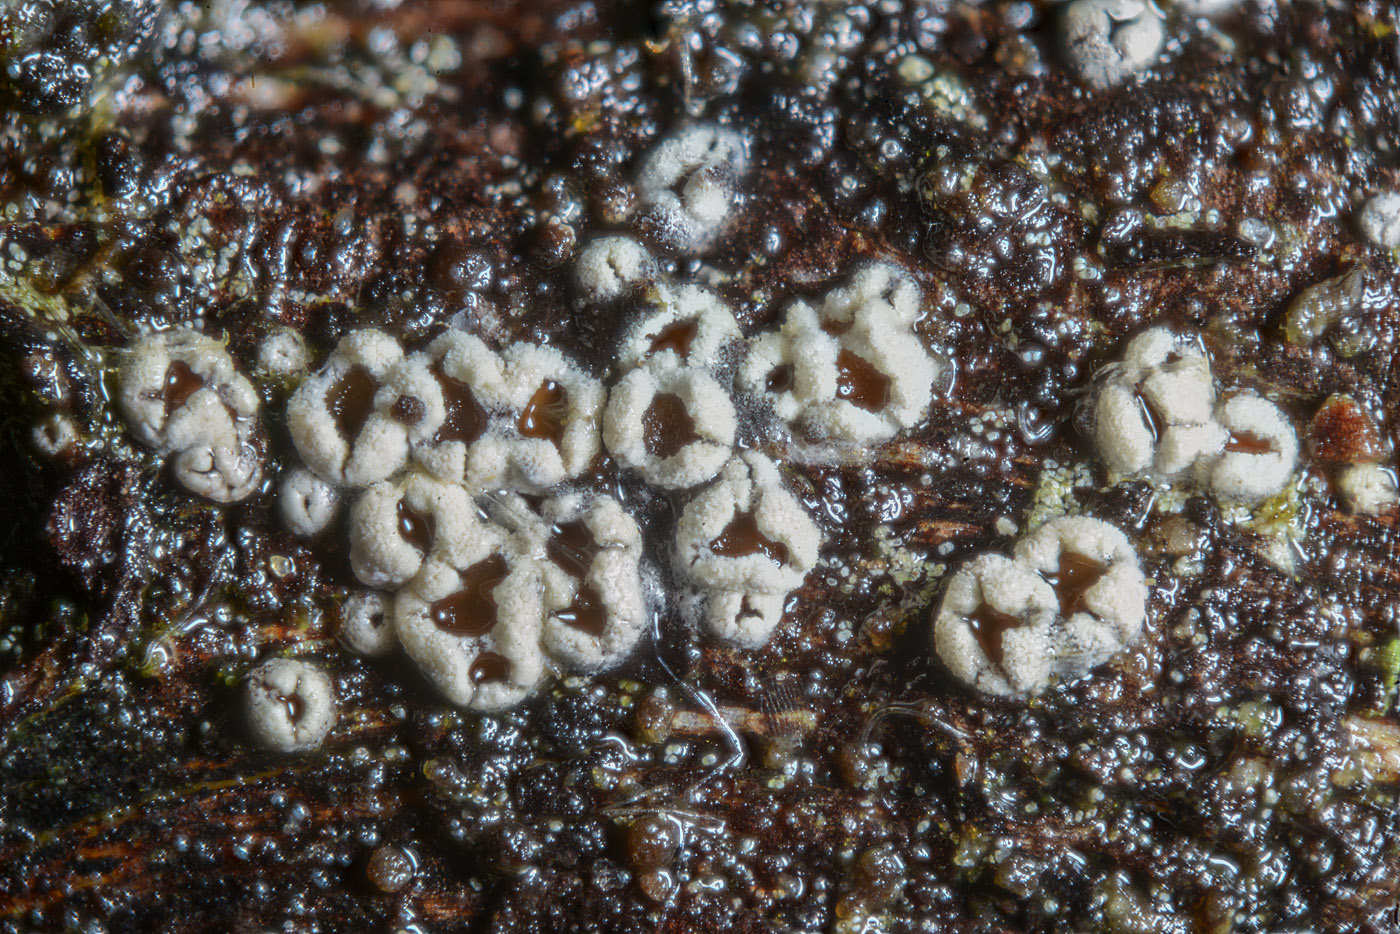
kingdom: Fungi
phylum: Ascomycota
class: Lecanoromycetes
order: Ostropales
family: Stictidaceae
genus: Stictis
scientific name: Stictis friabilis
